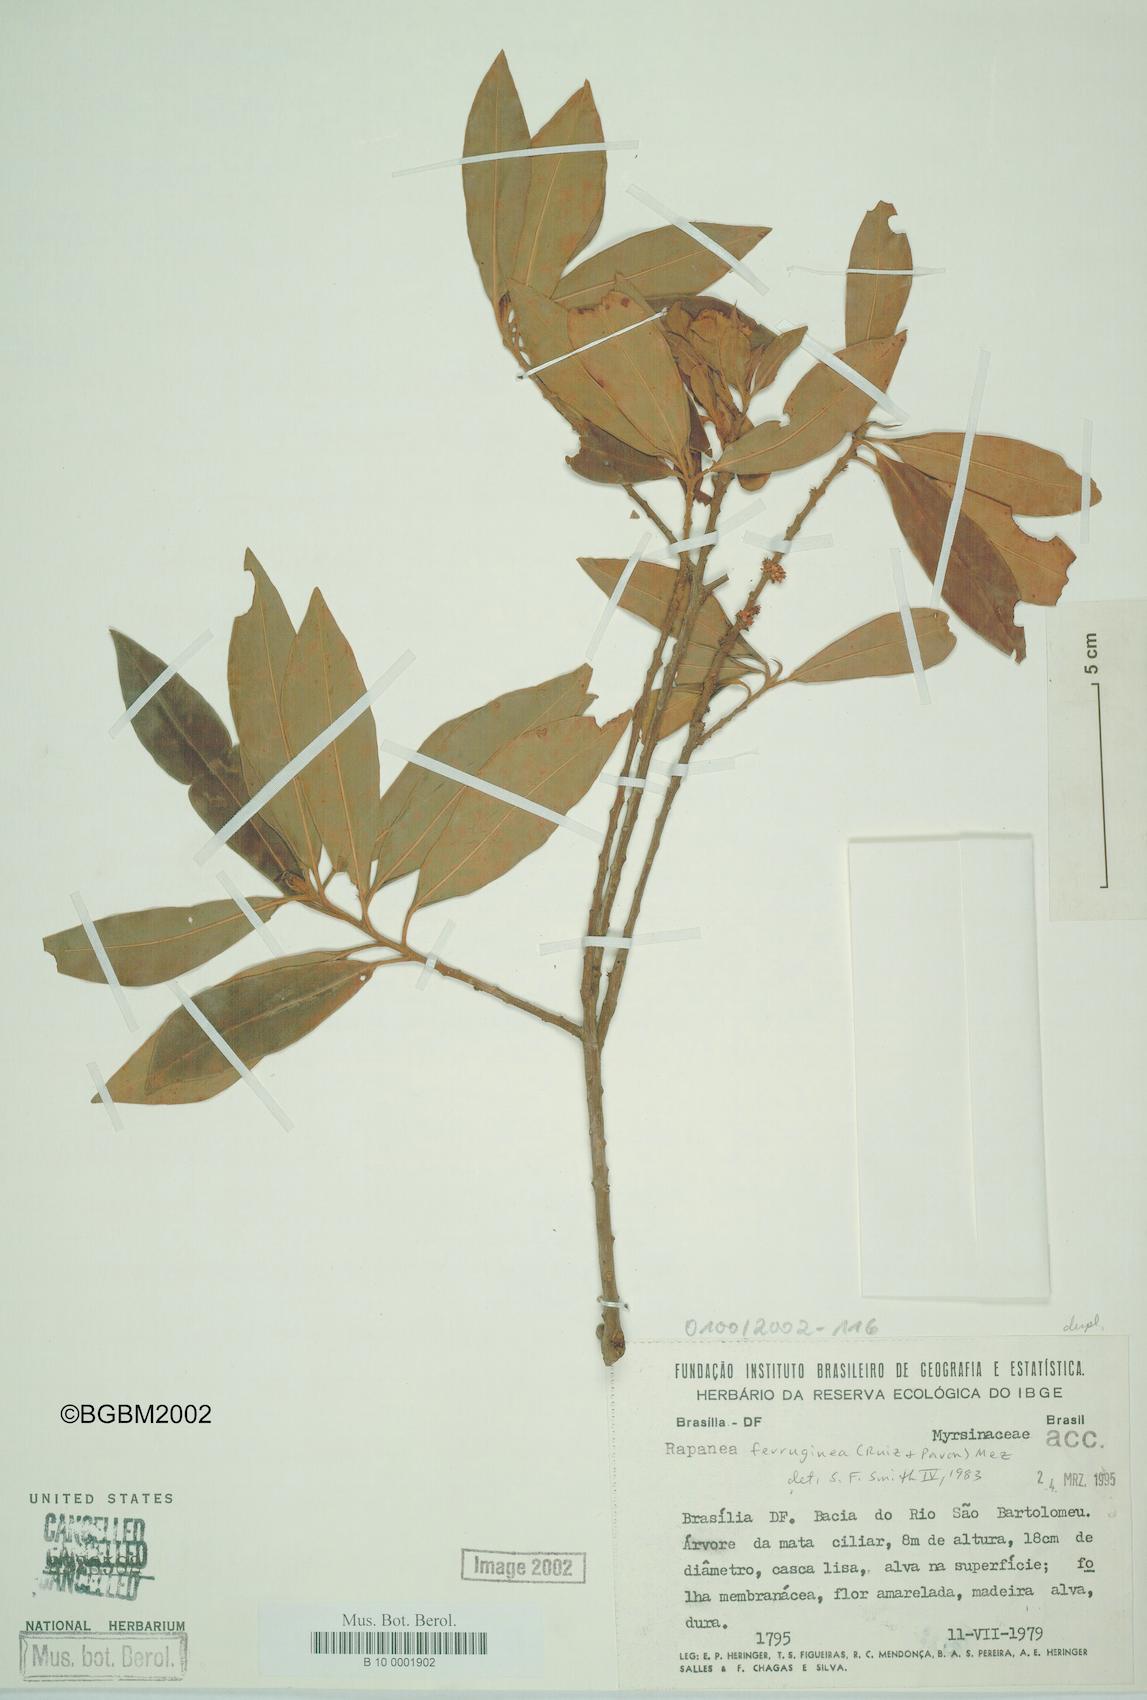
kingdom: Plantae
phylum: Tracheophyta
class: Magnoliopsida
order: Ericales
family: Primulaceae
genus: Myrsine
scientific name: Myrsine coriacea
